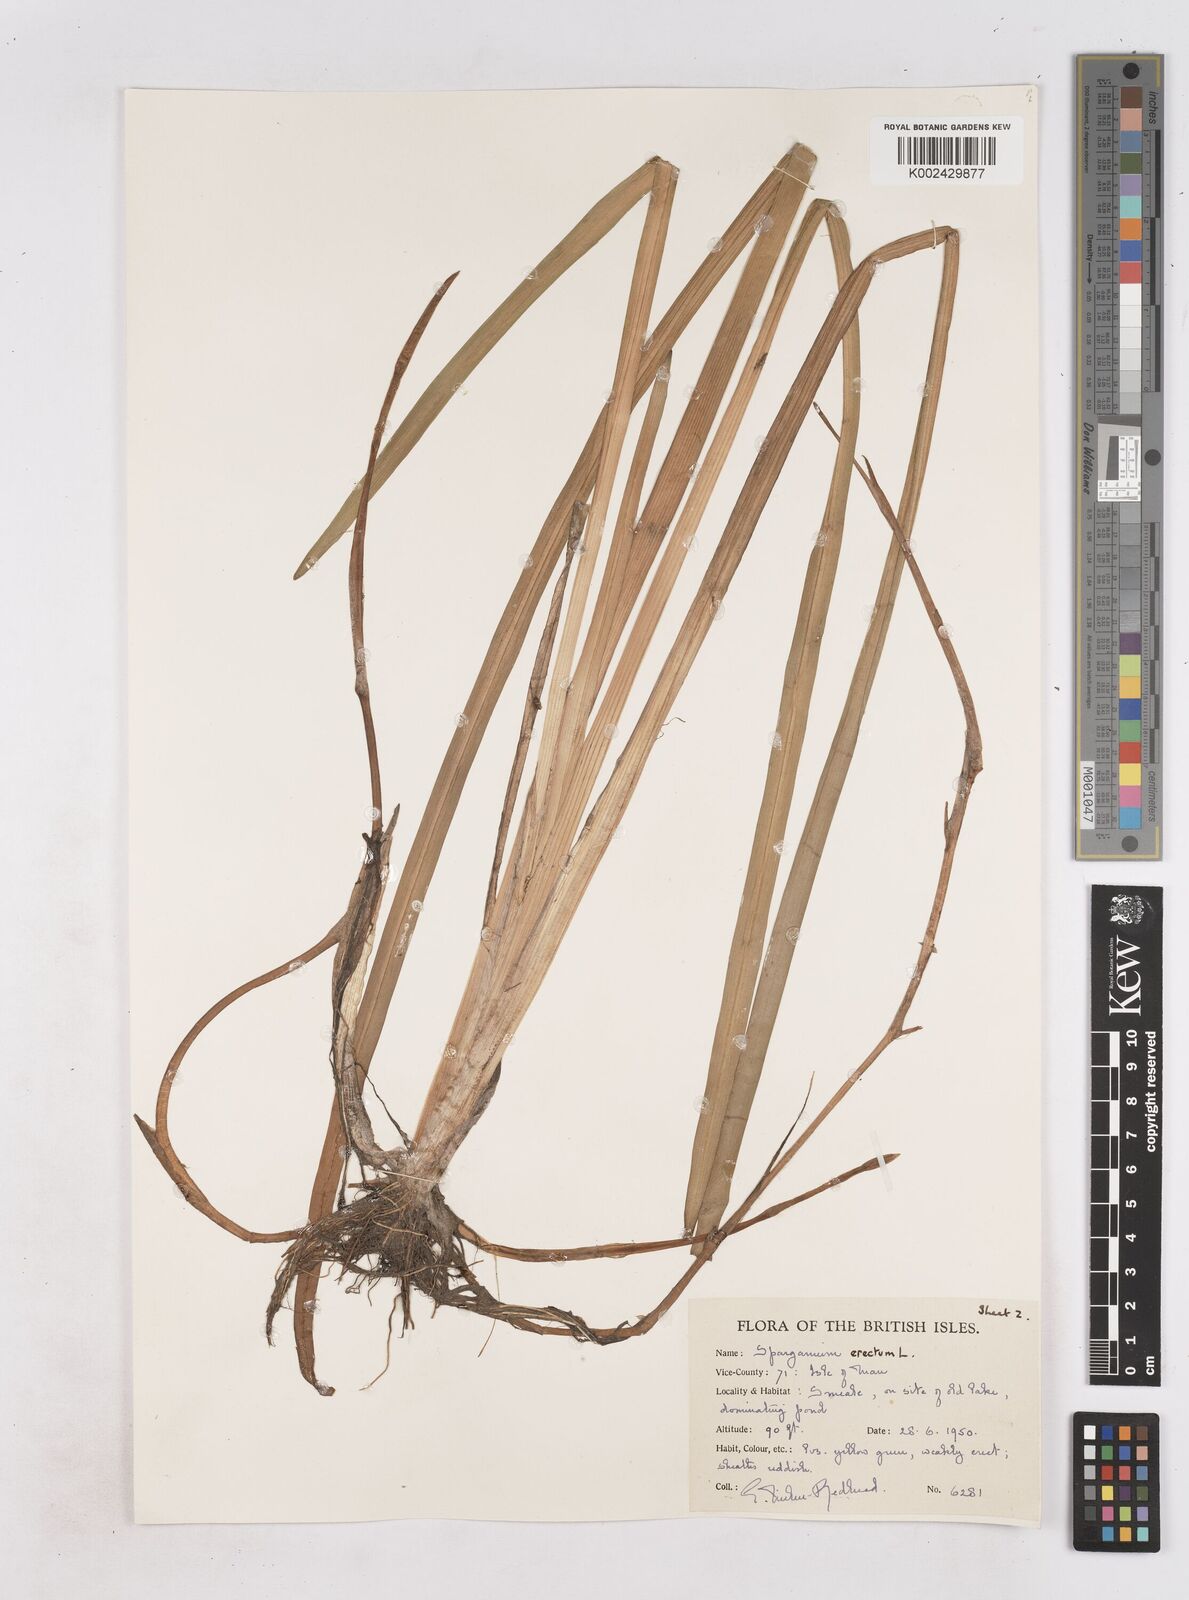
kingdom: Plantae
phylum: Tracheophyta
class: Liliopsida
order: Poales
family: Typhaceae
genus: Sparganium
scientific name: Sparganium erectum
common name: Branched bur-reed
